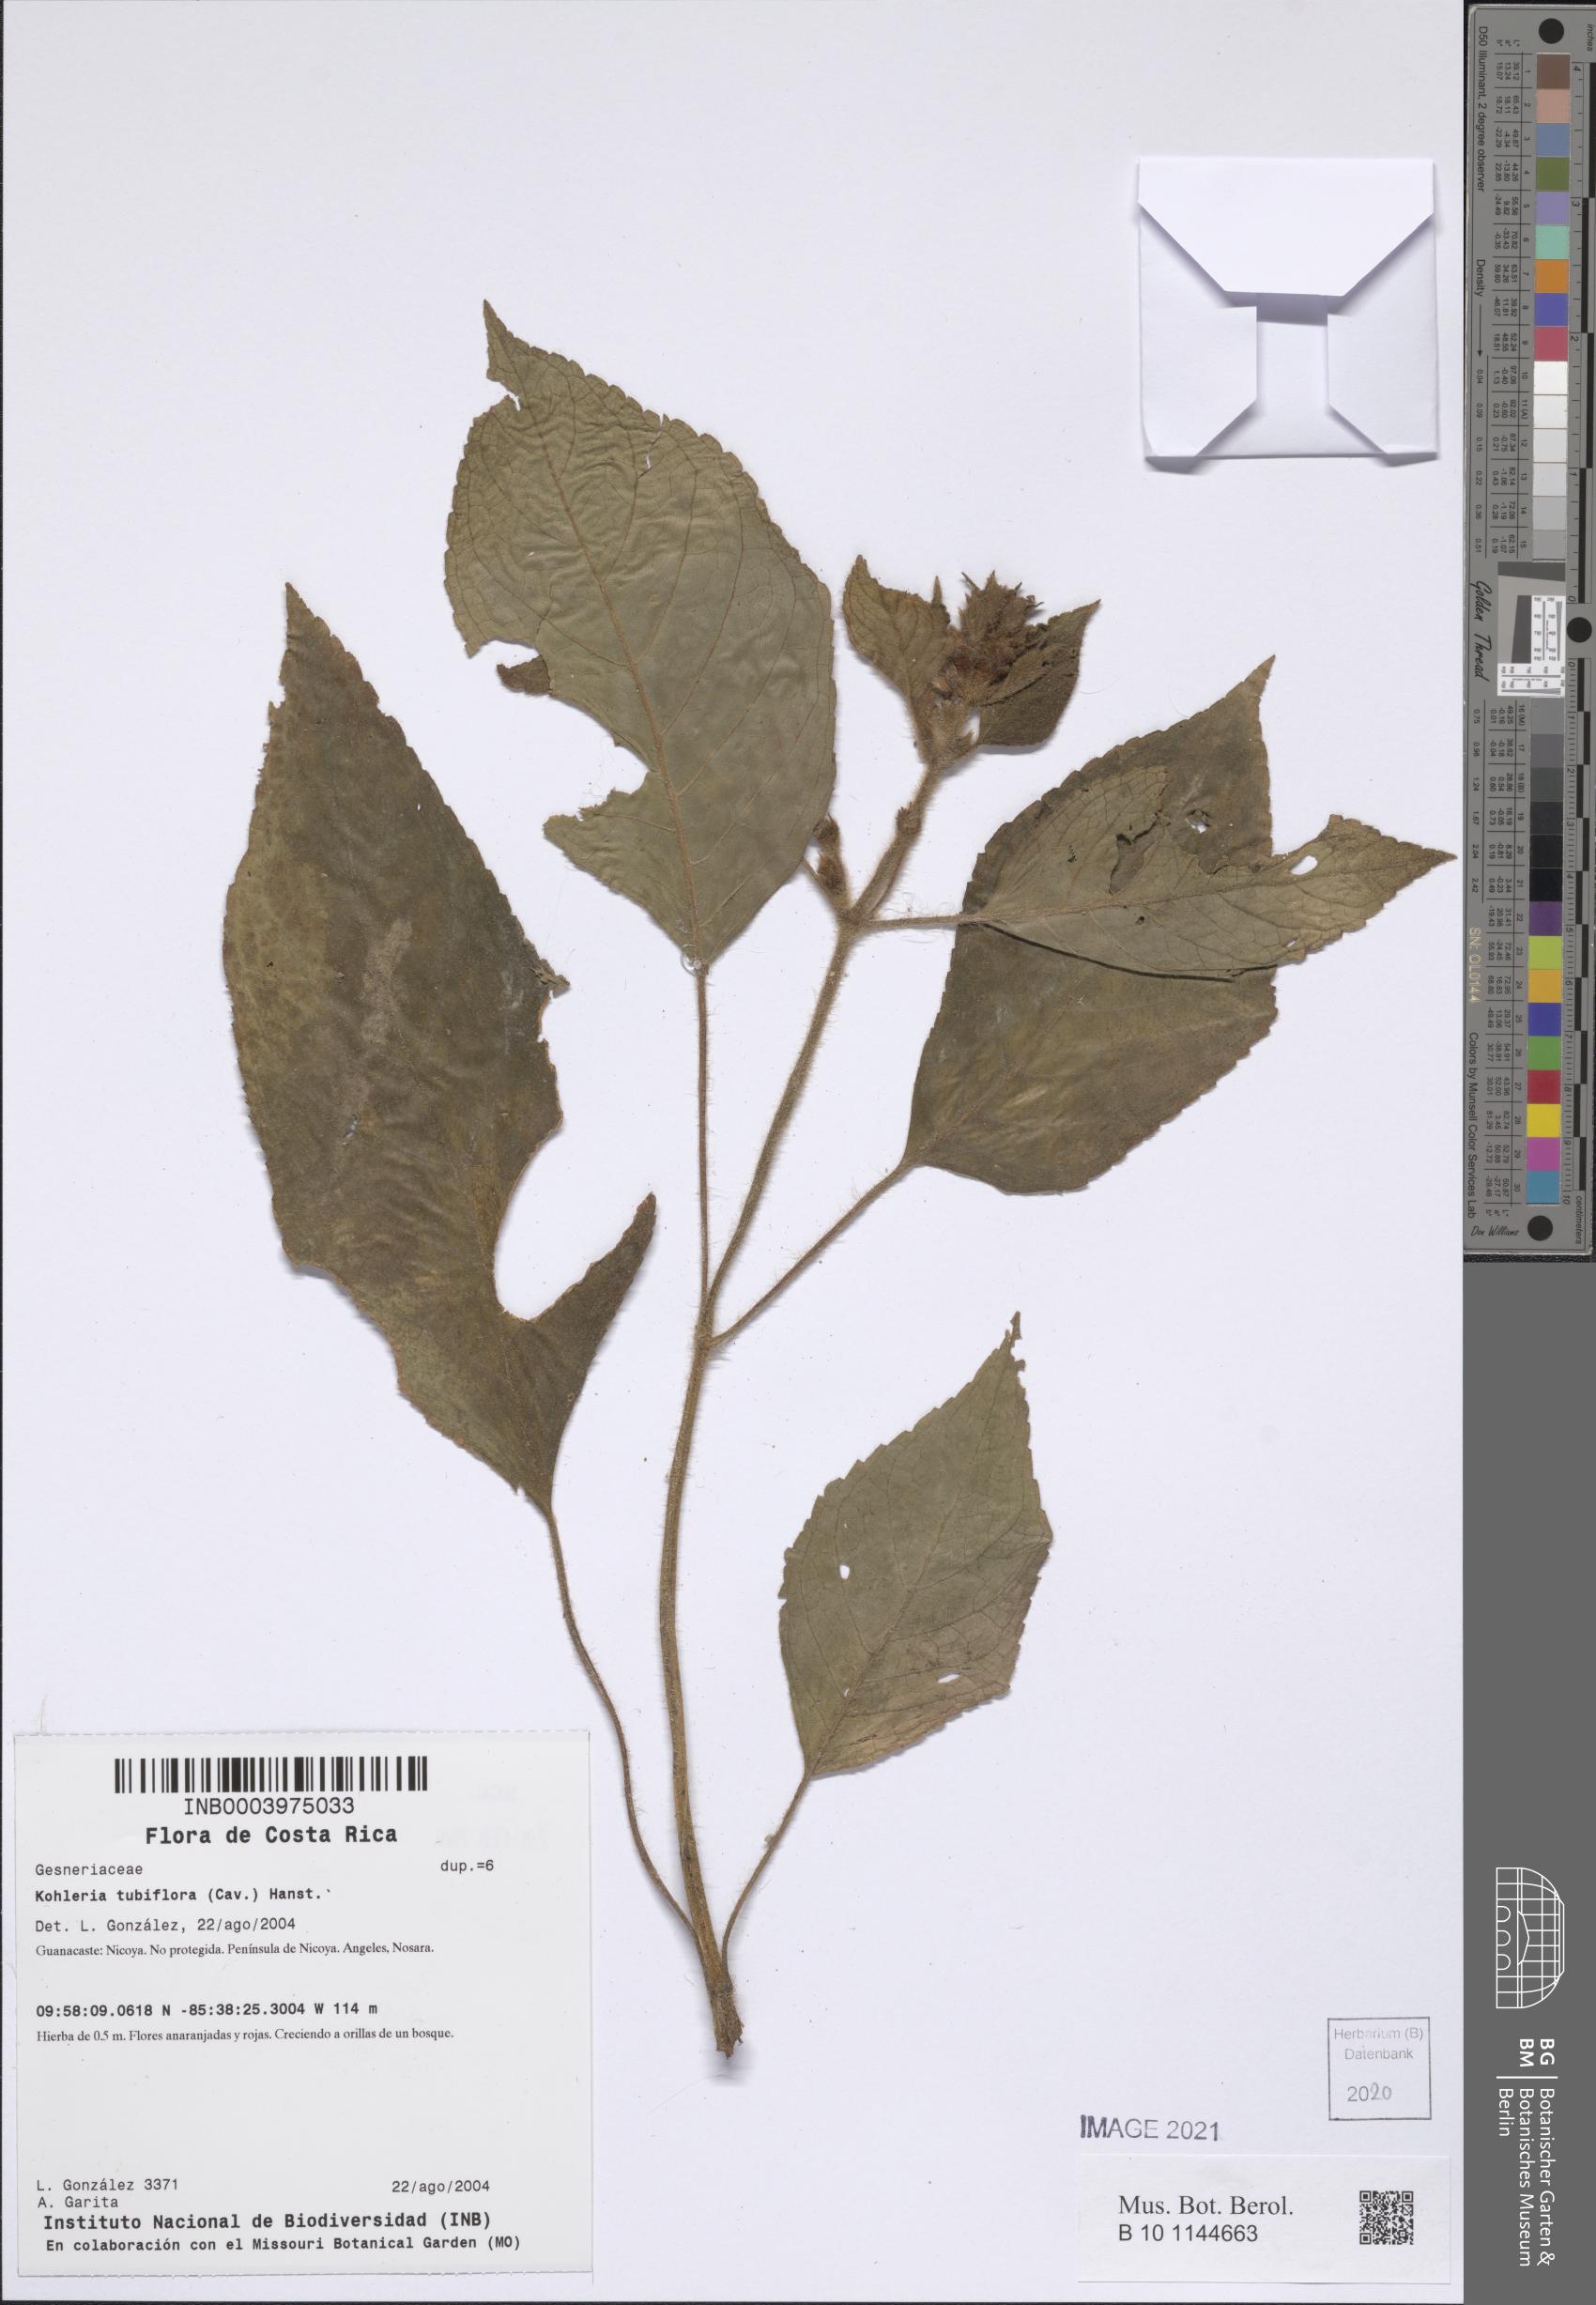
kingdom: Plantae
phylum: Tracheophyta
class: Magnoliopsida
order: Lamiales
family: Gesneriaceae
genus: Kohleria
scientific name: Kohleria tubiflora
